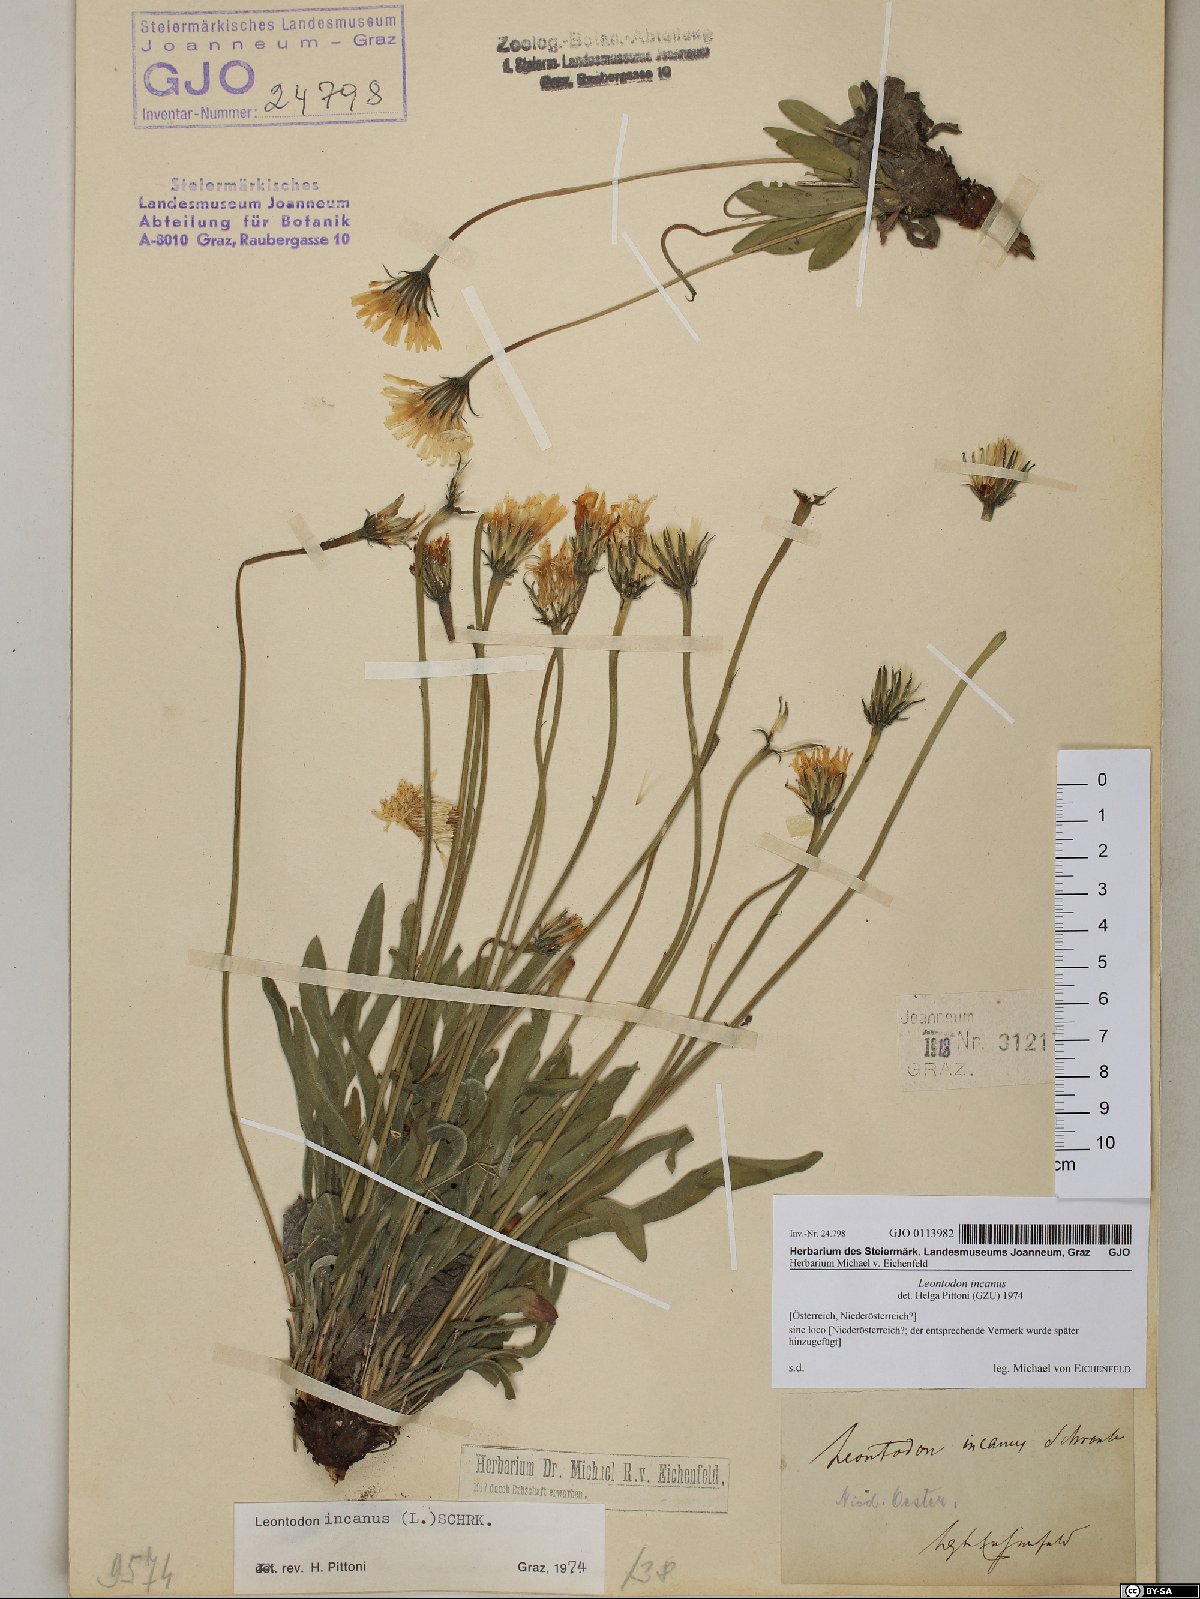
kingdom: Plantae
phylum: Tracheophyta
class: Magnoliopsida
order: Asterales
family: Asteraceae
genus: Leontodon
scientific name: Leontodon incanus
